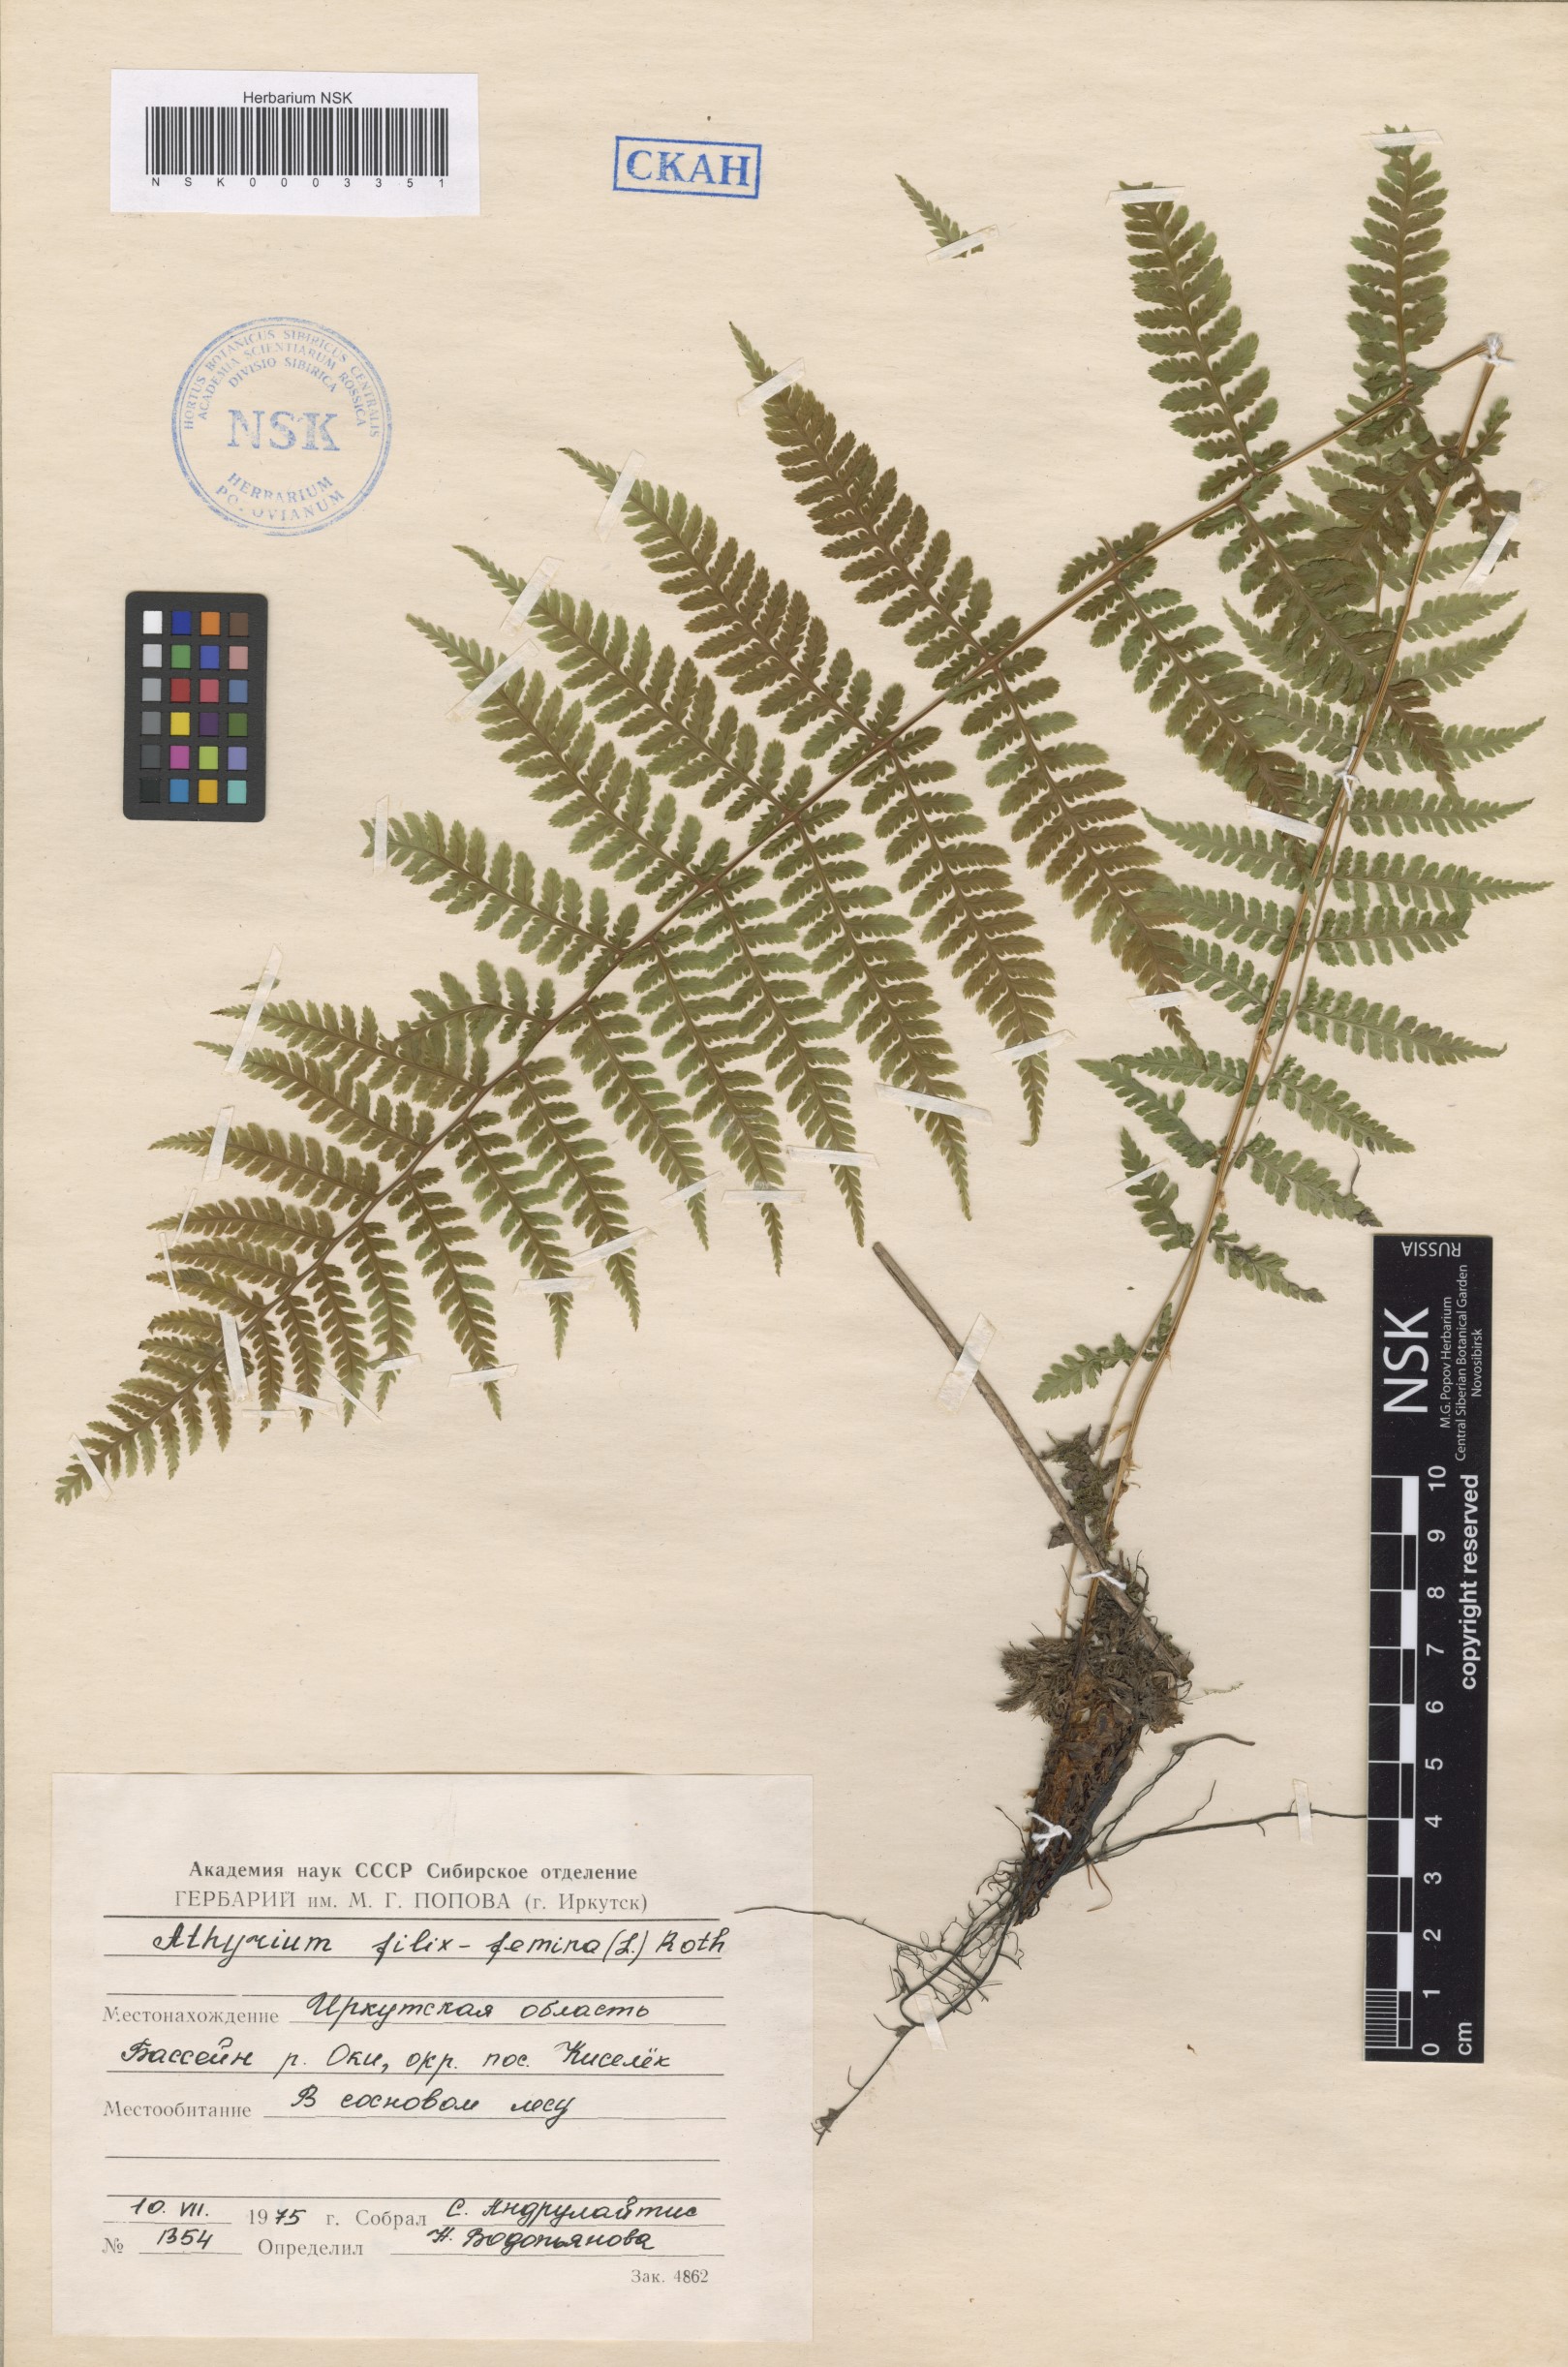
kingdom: Plantae
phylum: Tracheophyta
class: Polypodiopsida
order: Polypodiales
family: Athyriaceae
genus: Athyrium
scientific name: Athyrium filix-femina
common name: Lady fern
